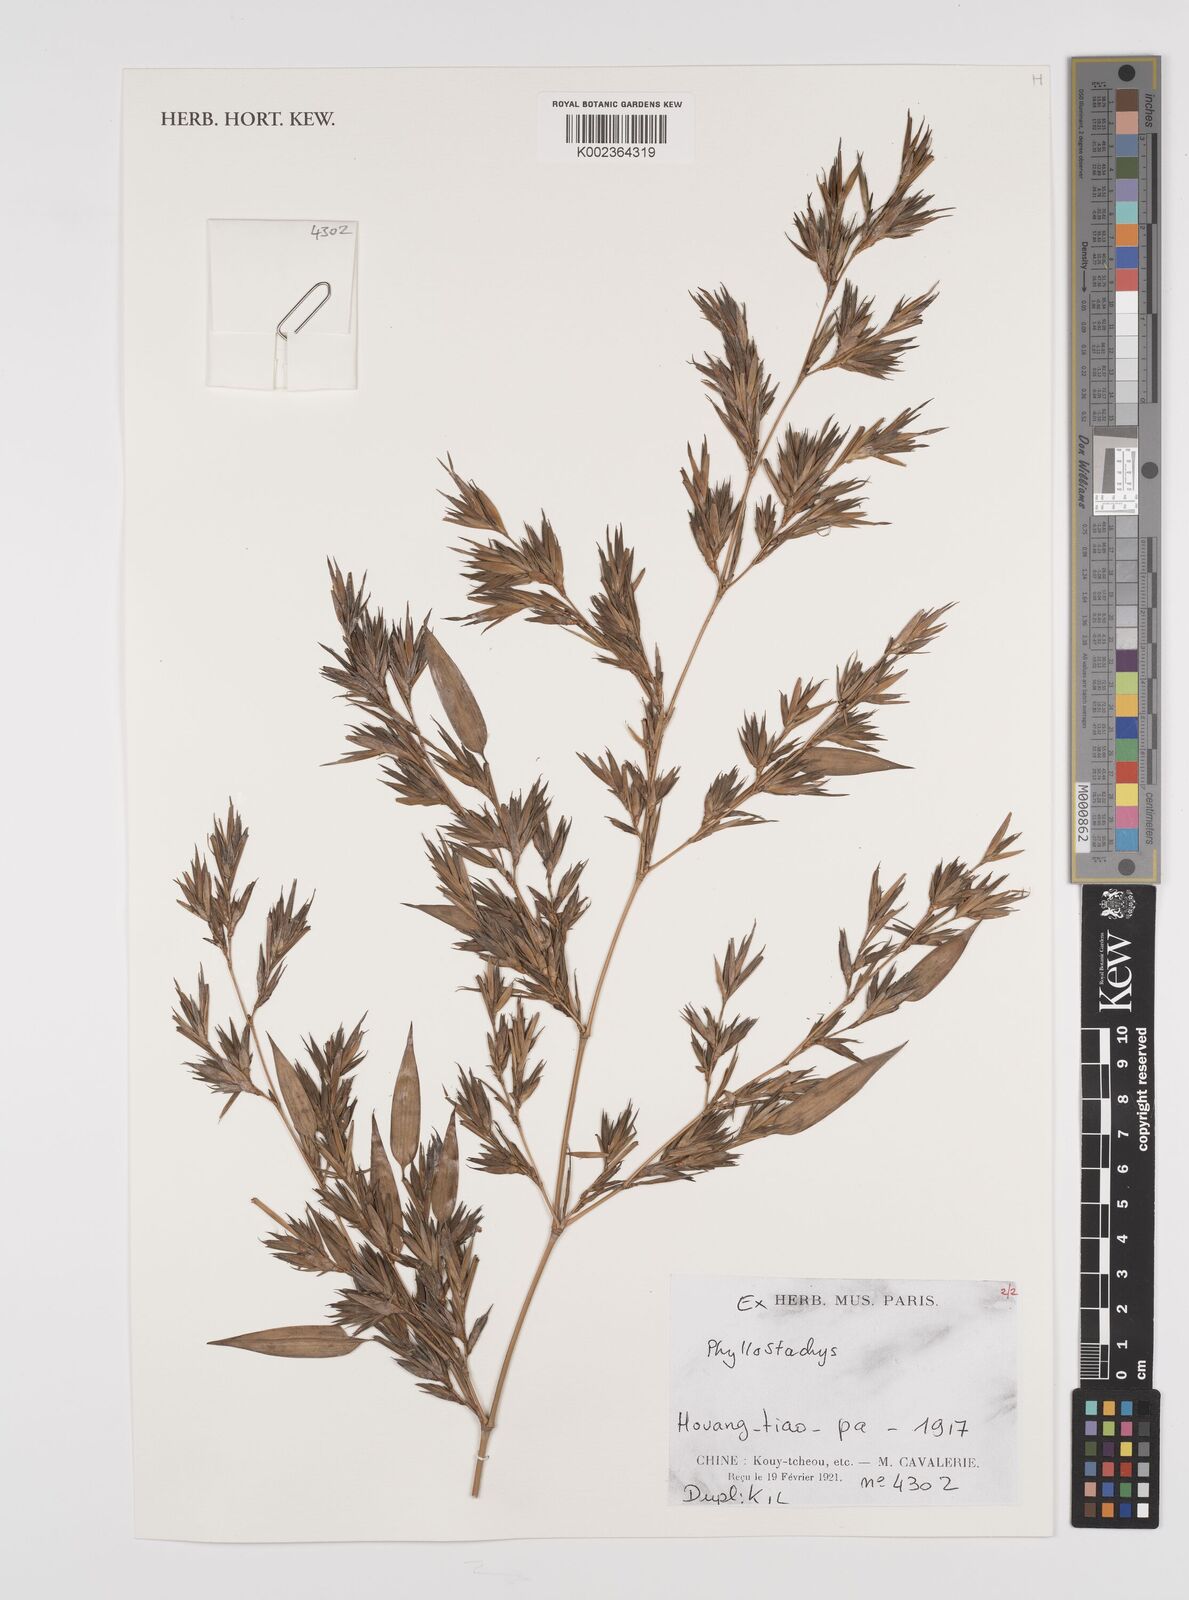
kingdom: Plantae
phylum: Tracheophyta
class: Liliopsida
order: Poales
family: Poaceae
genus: Phyllostachys
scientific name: Phyllostachys
